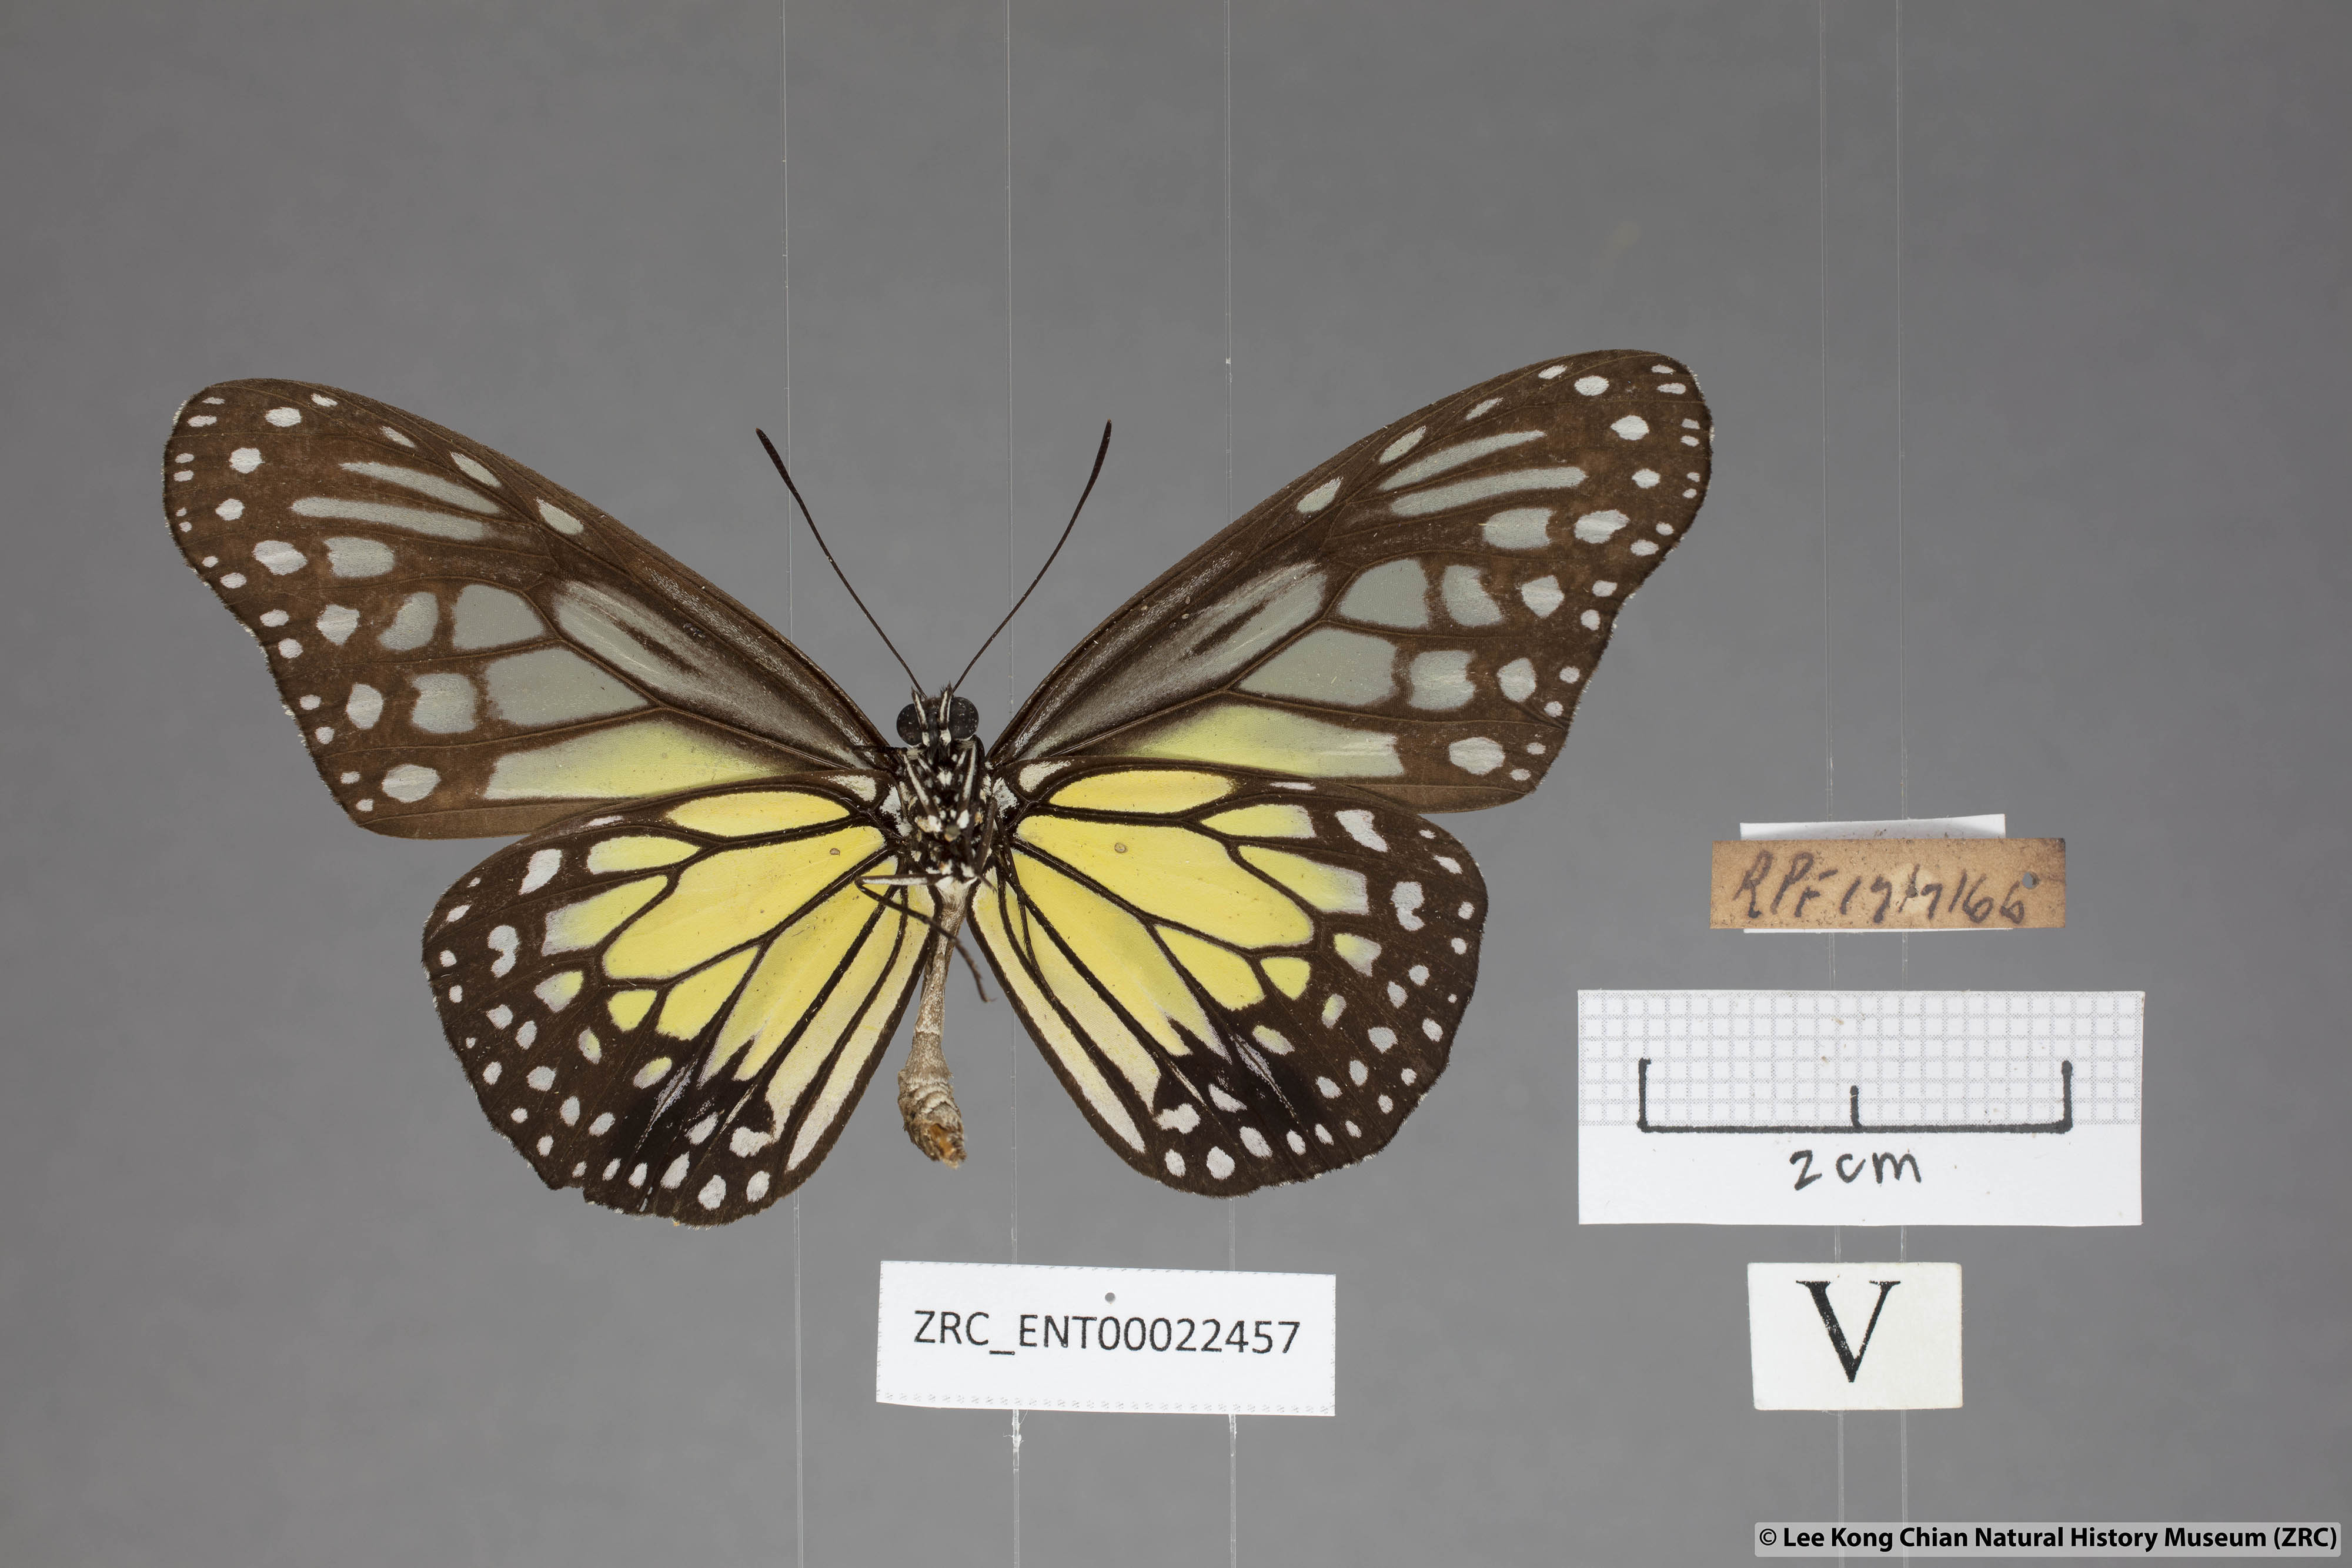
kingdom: Animalia
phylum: Arthropoda
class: Insecta
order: Lepidoptera
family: Nymphalidae
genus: Parantica
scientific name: Parantica aspasia
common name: Yellow glassy tiger
